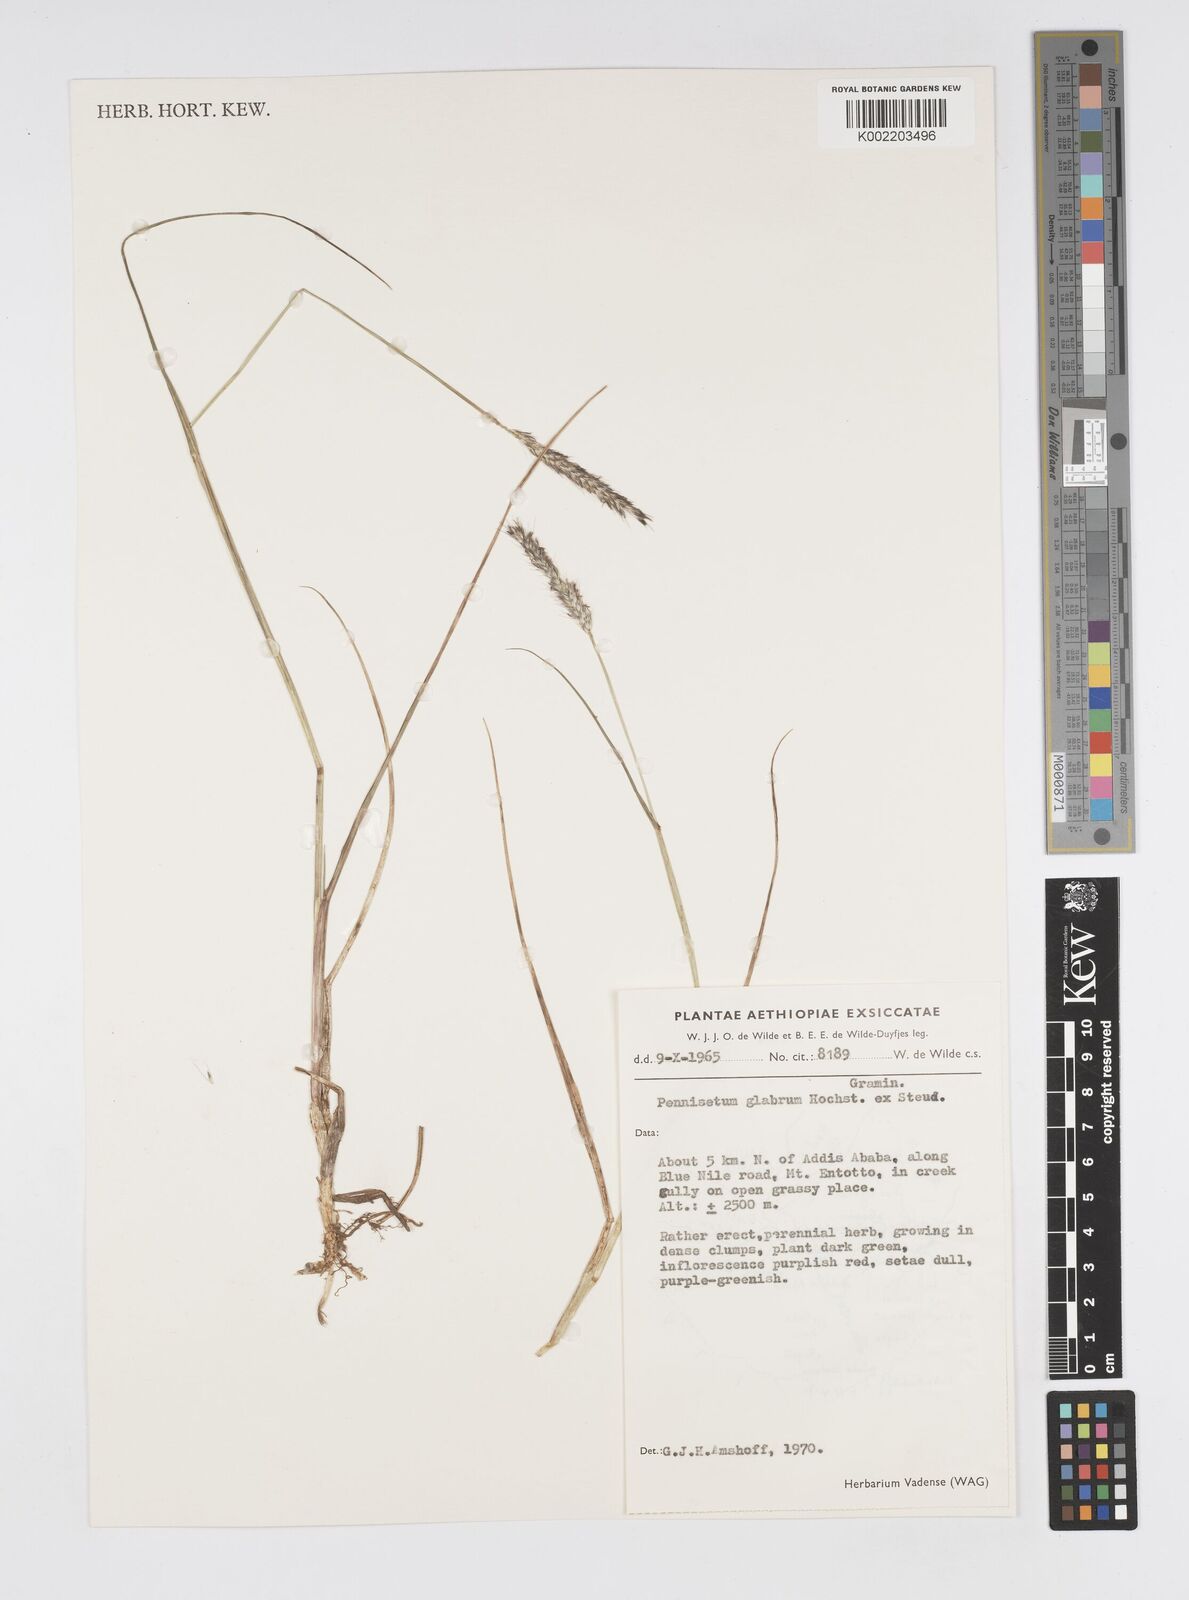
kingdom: Plantae
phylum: Tracheophyta
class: Liliopsida
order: Poales
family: Poaceae
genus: Cenchrus
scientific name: Cenchrus geniculatus
